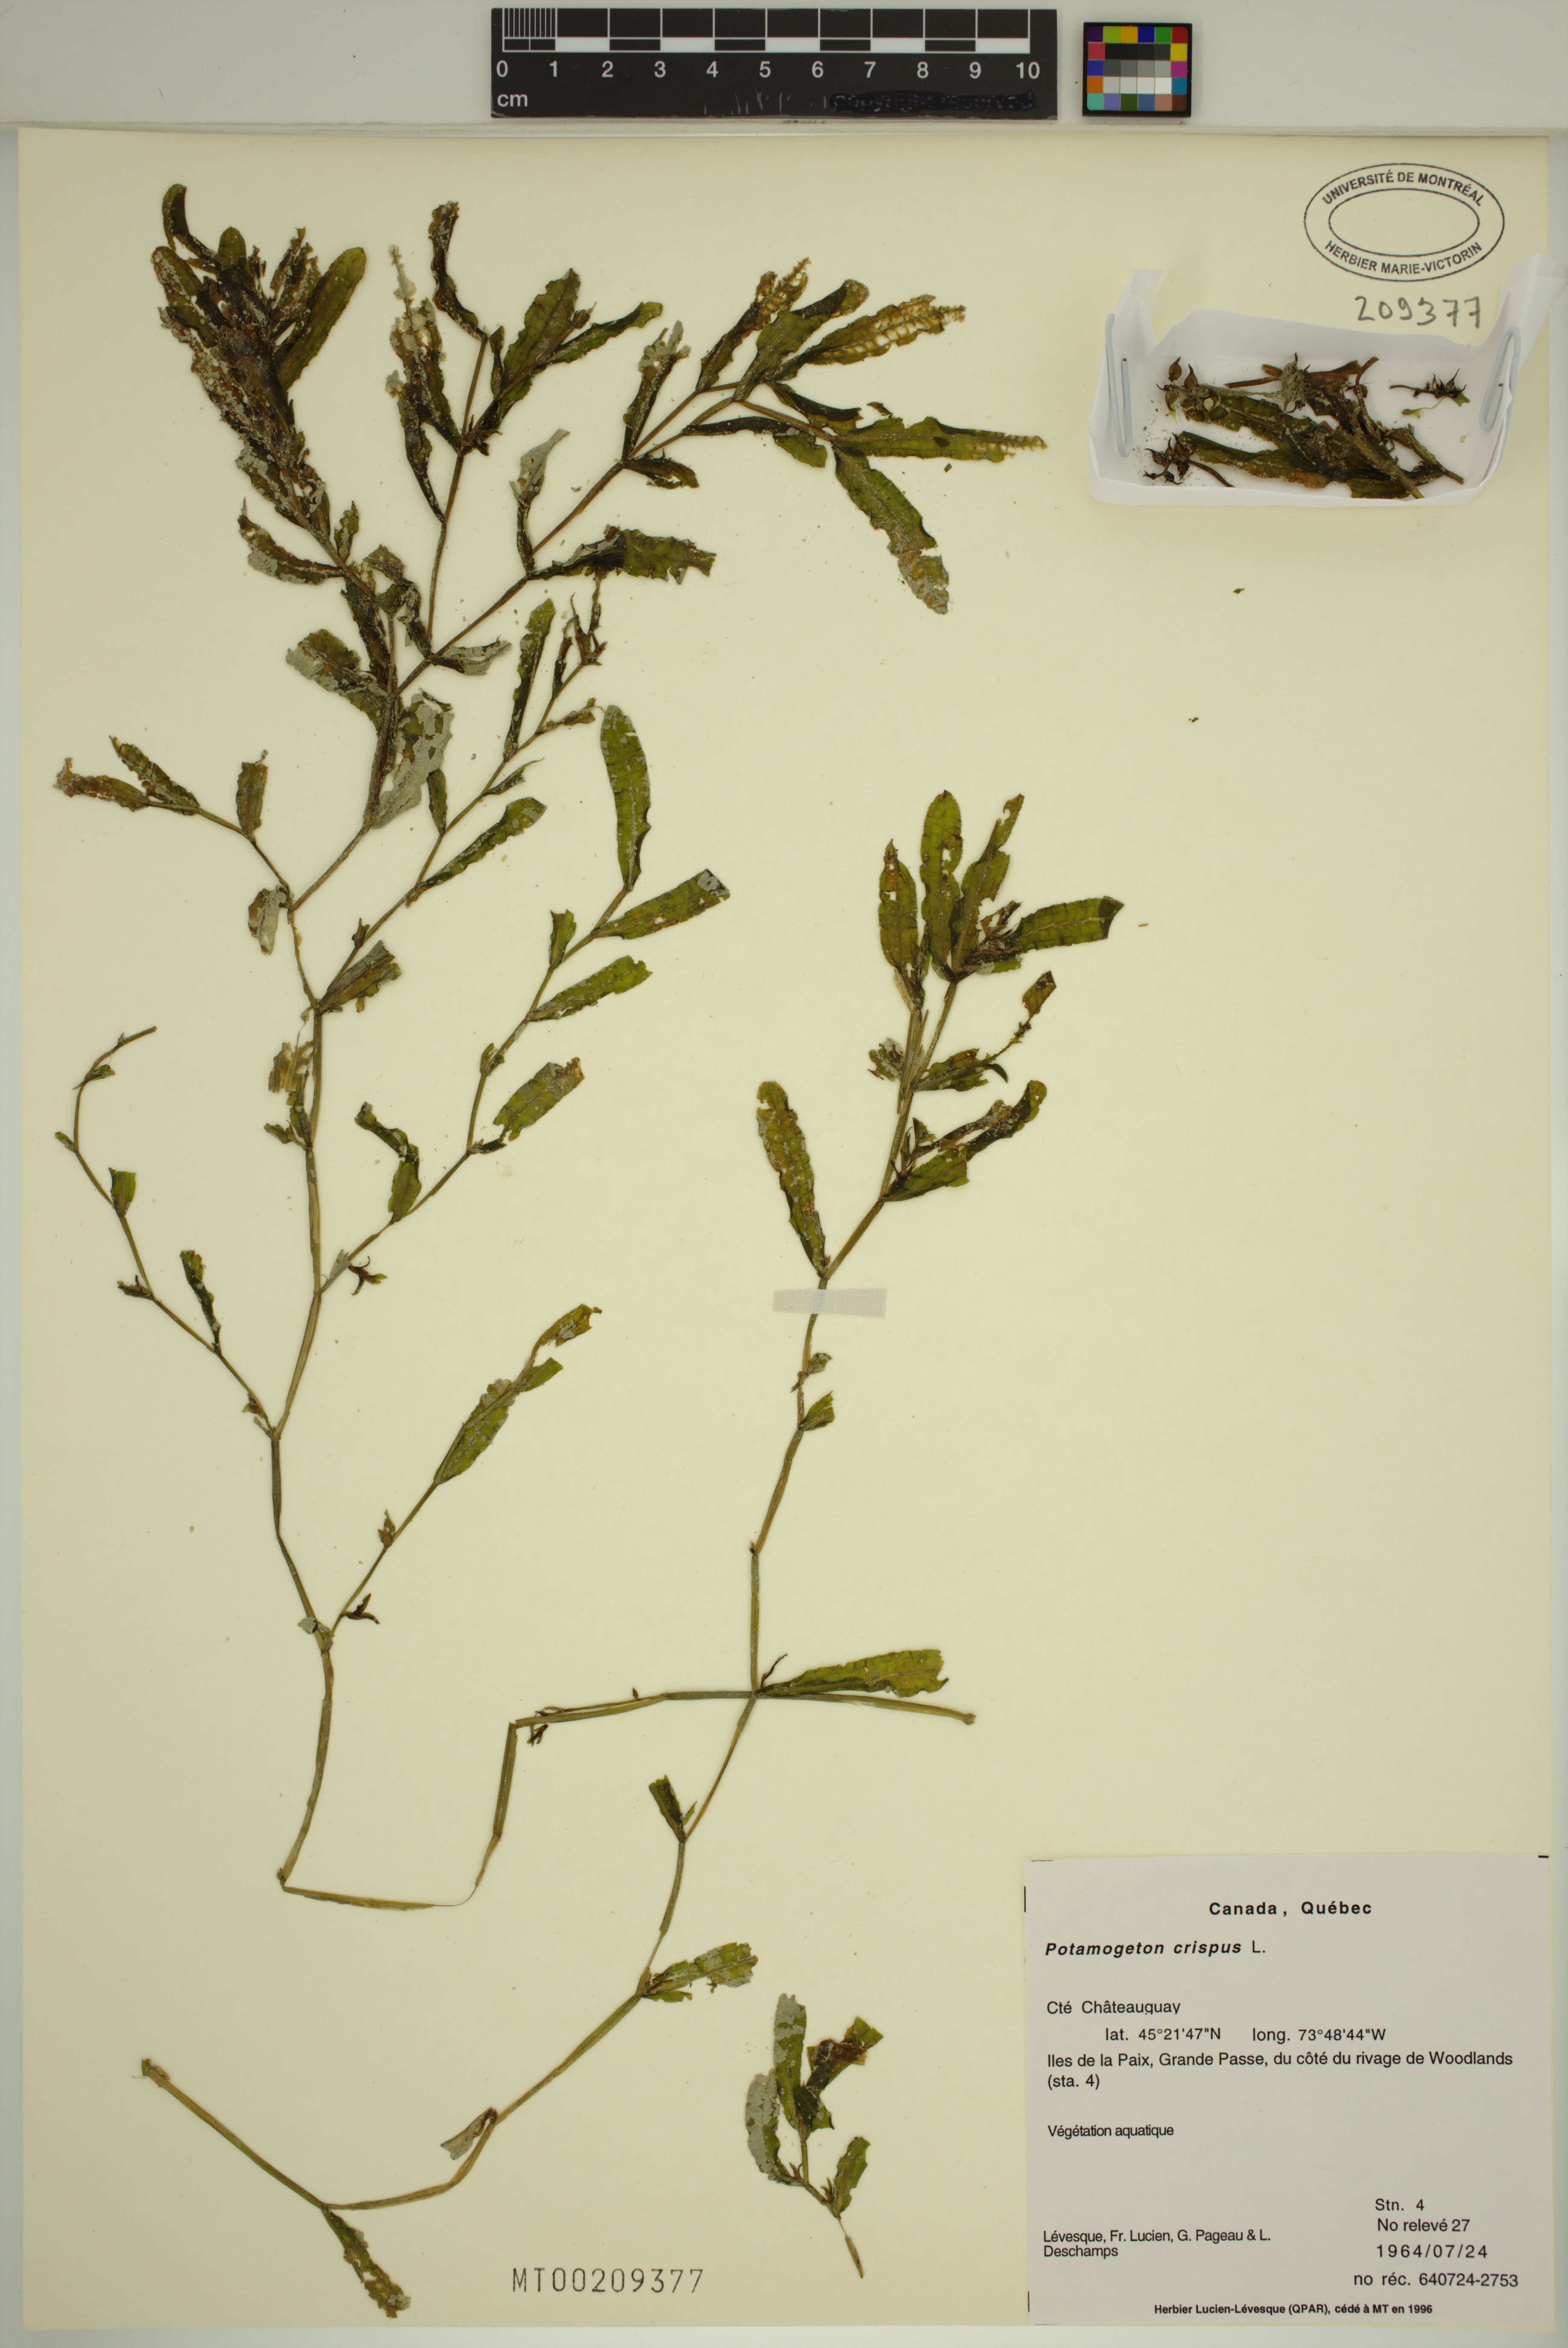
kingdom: Plantae
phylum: Tracheophyta
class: Liliopsida
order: Alismatales
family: Potamogetonaceae
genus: Potamogeton
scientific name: Potamogeton crispus
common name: Curled pondweed
